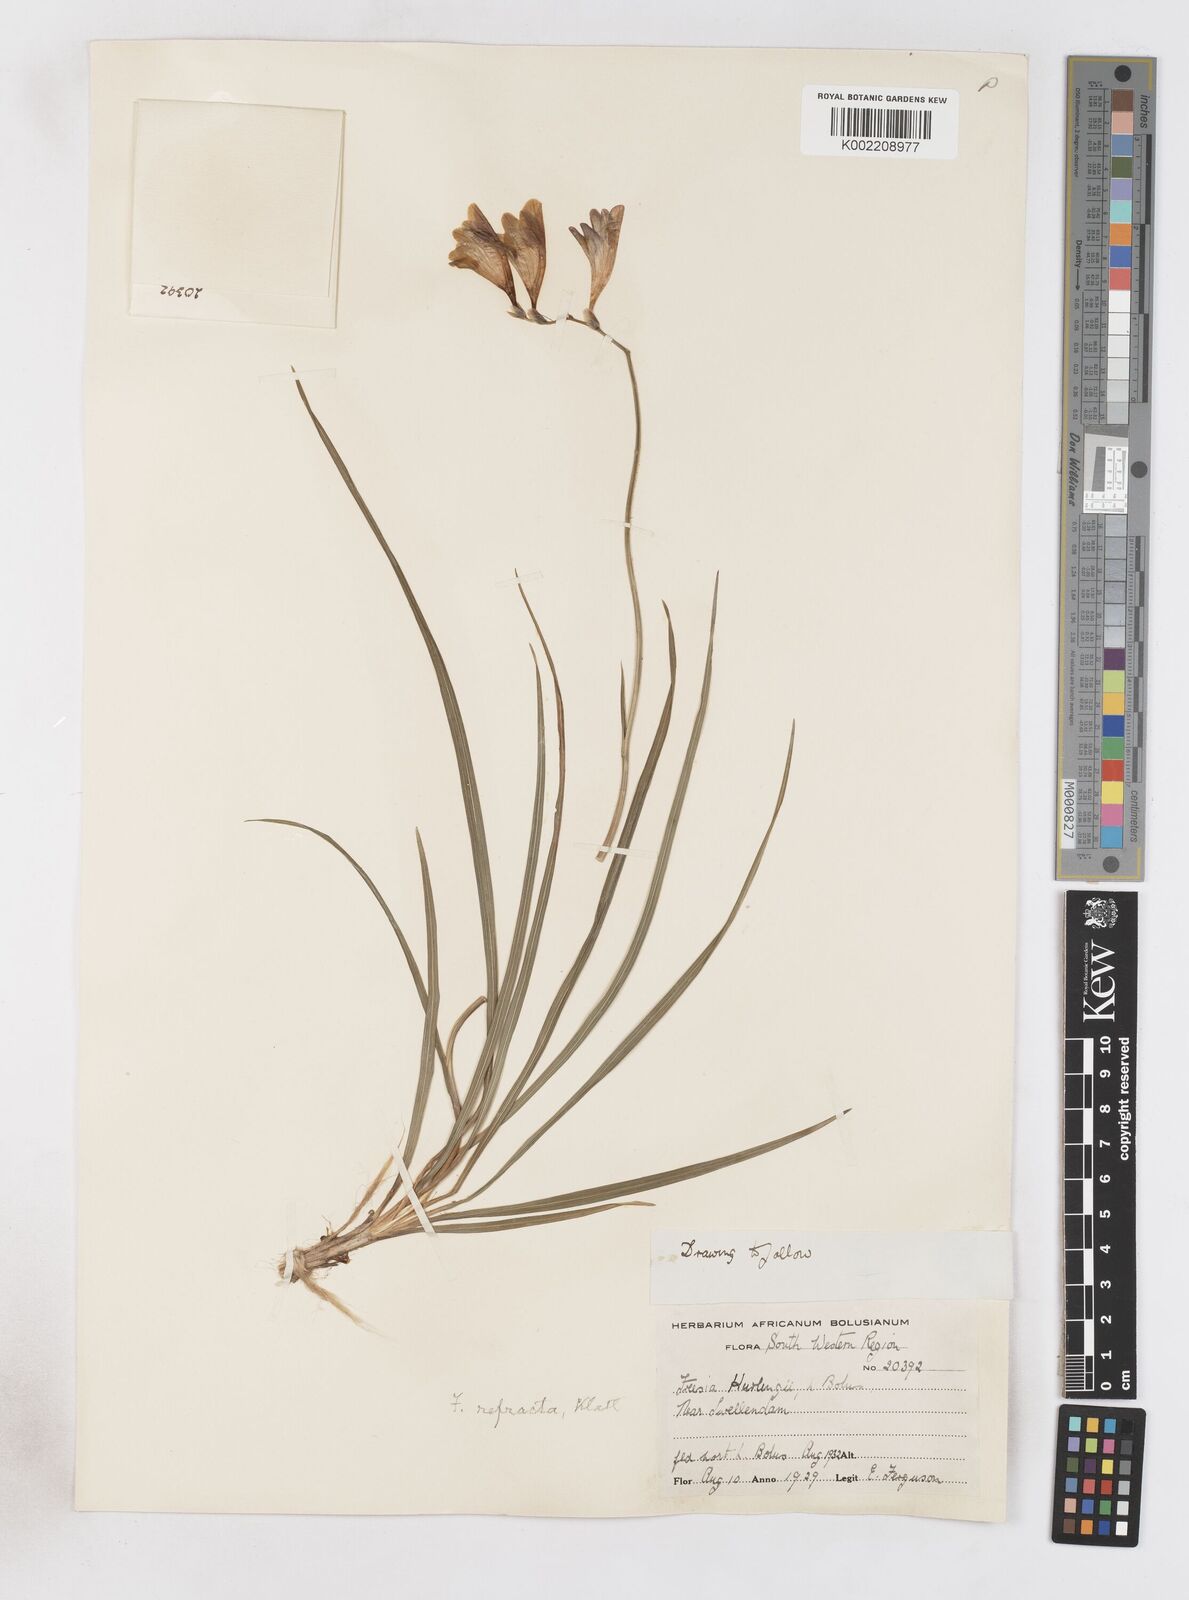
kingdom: Plantae
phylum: Tracheophyta
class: Liliopsida
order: Asparagales
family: Iridaceae
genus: Freesia
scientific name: Freesia refracta
